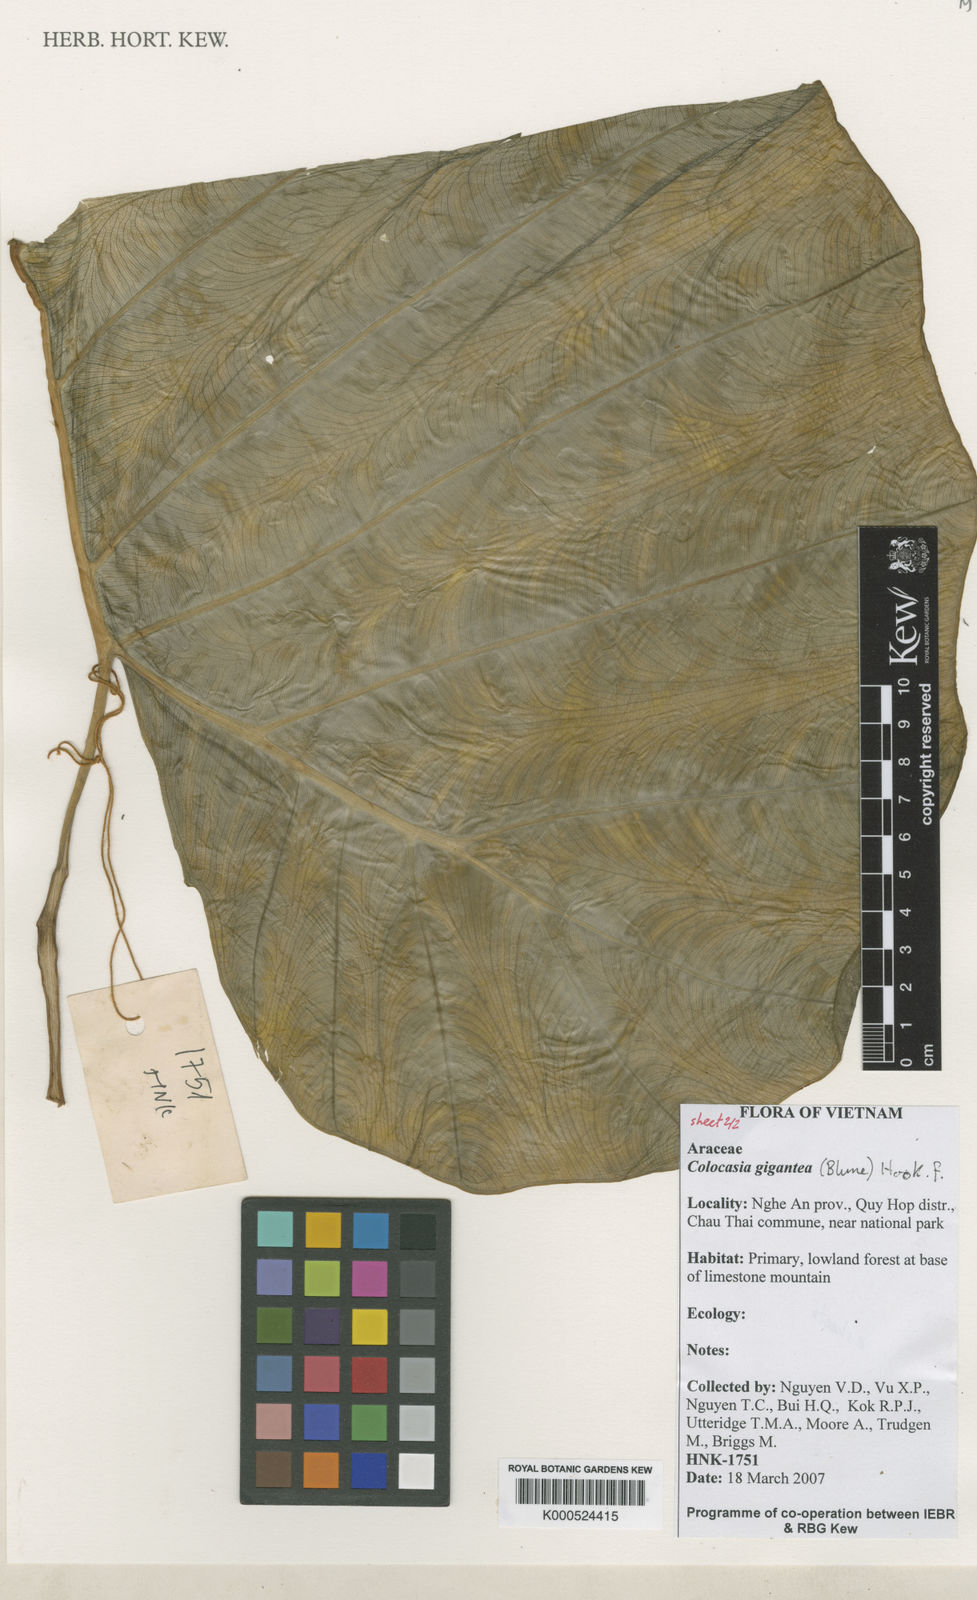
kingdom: Plantae
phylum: Tracheophyta
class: Liliopsida
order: Alismatales
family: Araceae
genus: Leucocasia
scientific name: Leucocasia gigantea
